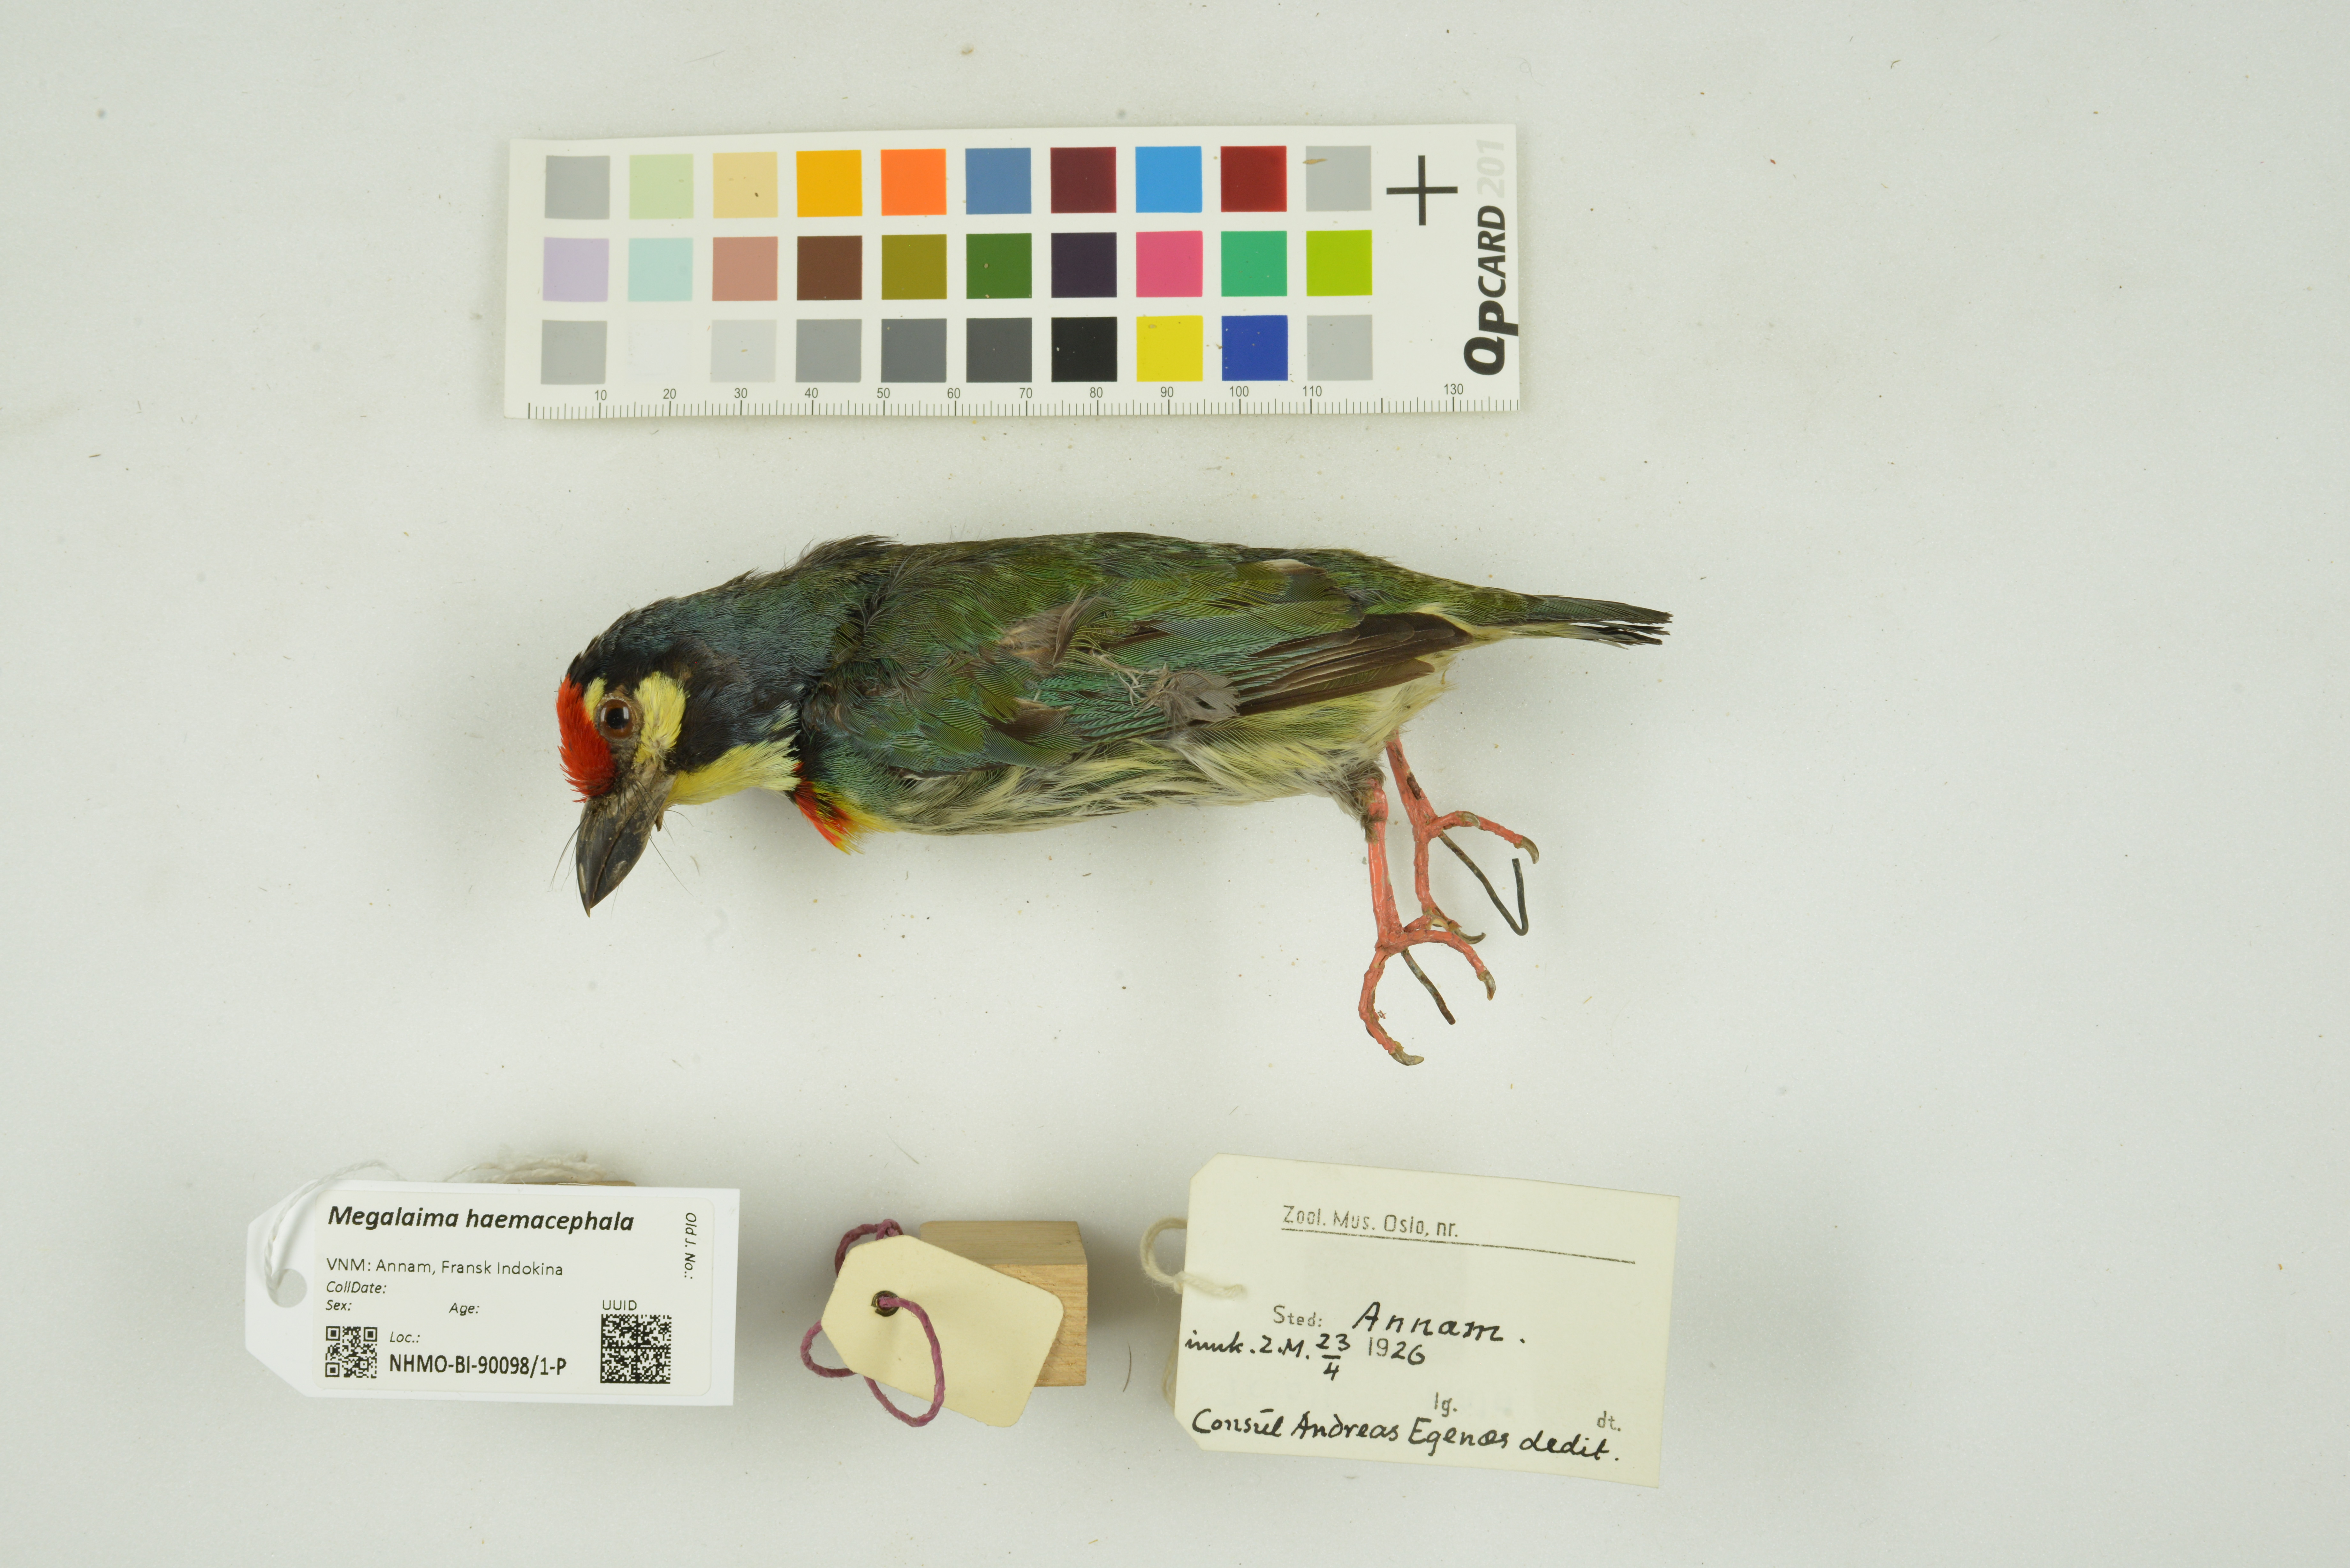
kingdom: Animalia
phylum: Chordata
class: Aves
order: Piciformes
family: Megalaimidae
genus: Psilopogon
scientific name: Psilopogon haemacephalus
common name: Coppersmith barbet
